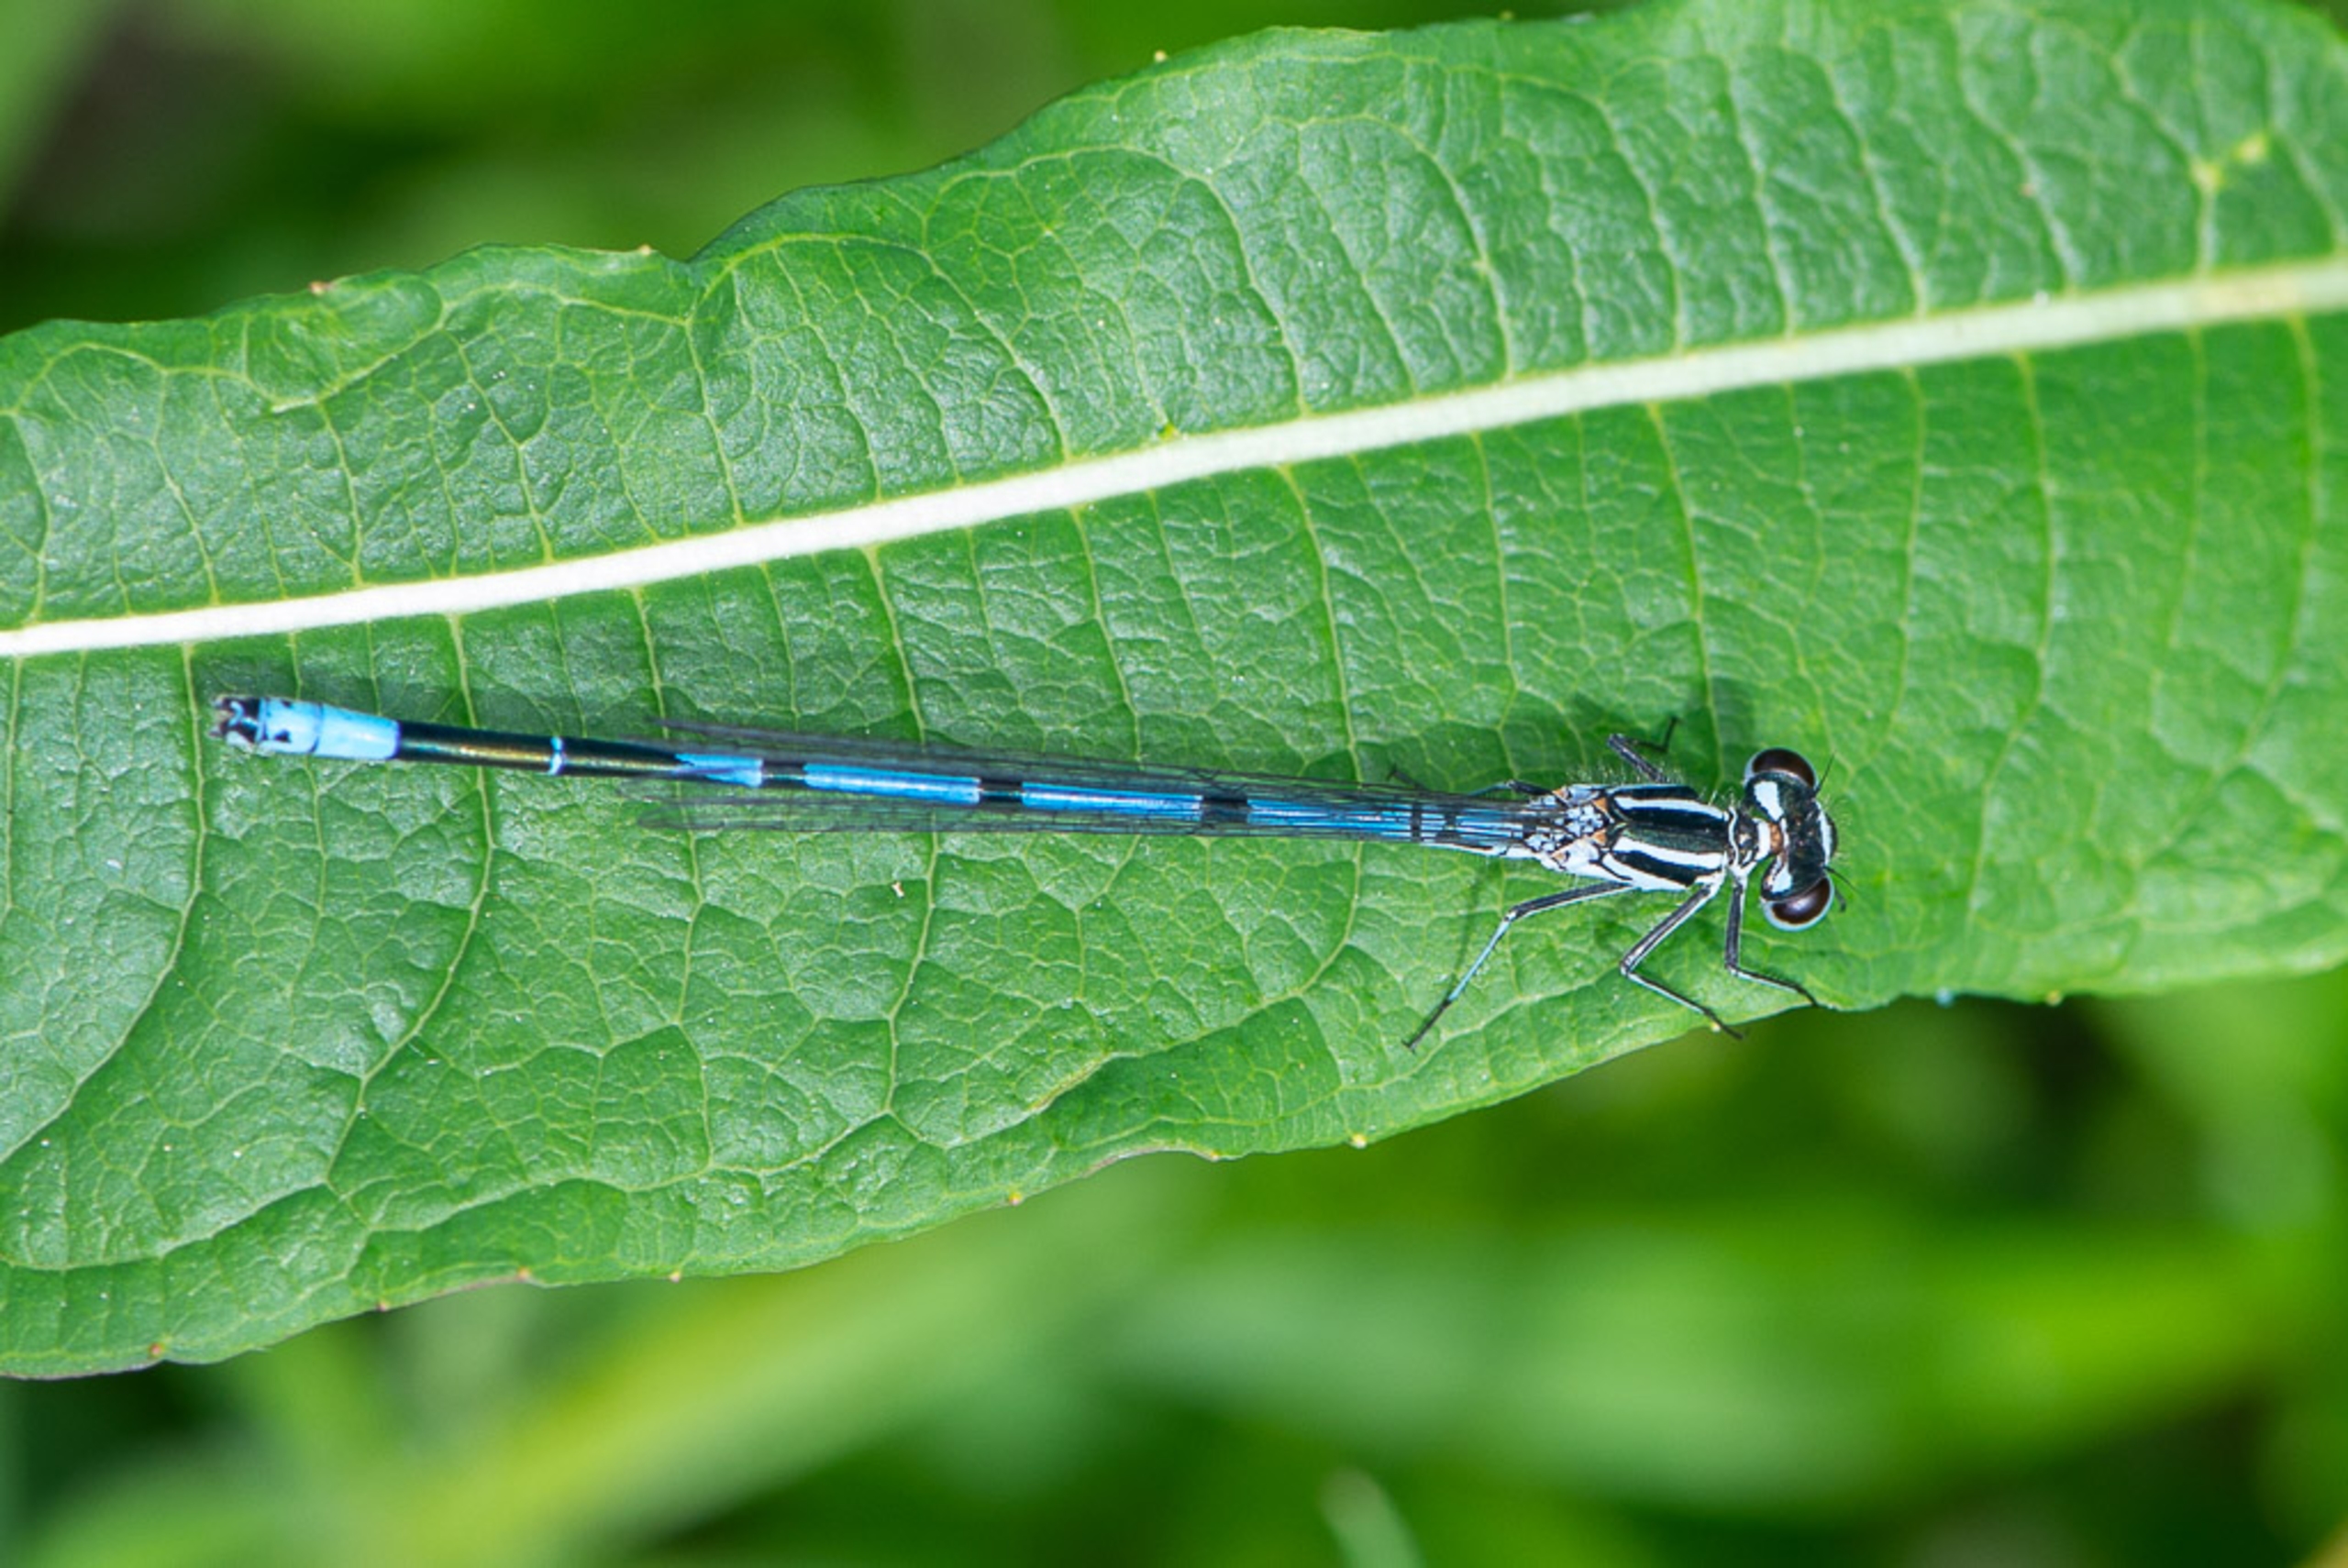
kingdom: Animalia
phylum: Arthropoda
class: Insecta
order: Odonata
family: Coenagrionidae
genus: Coenagrion
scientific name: Coenagrion puella
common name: Hestesko-vandnymfe
